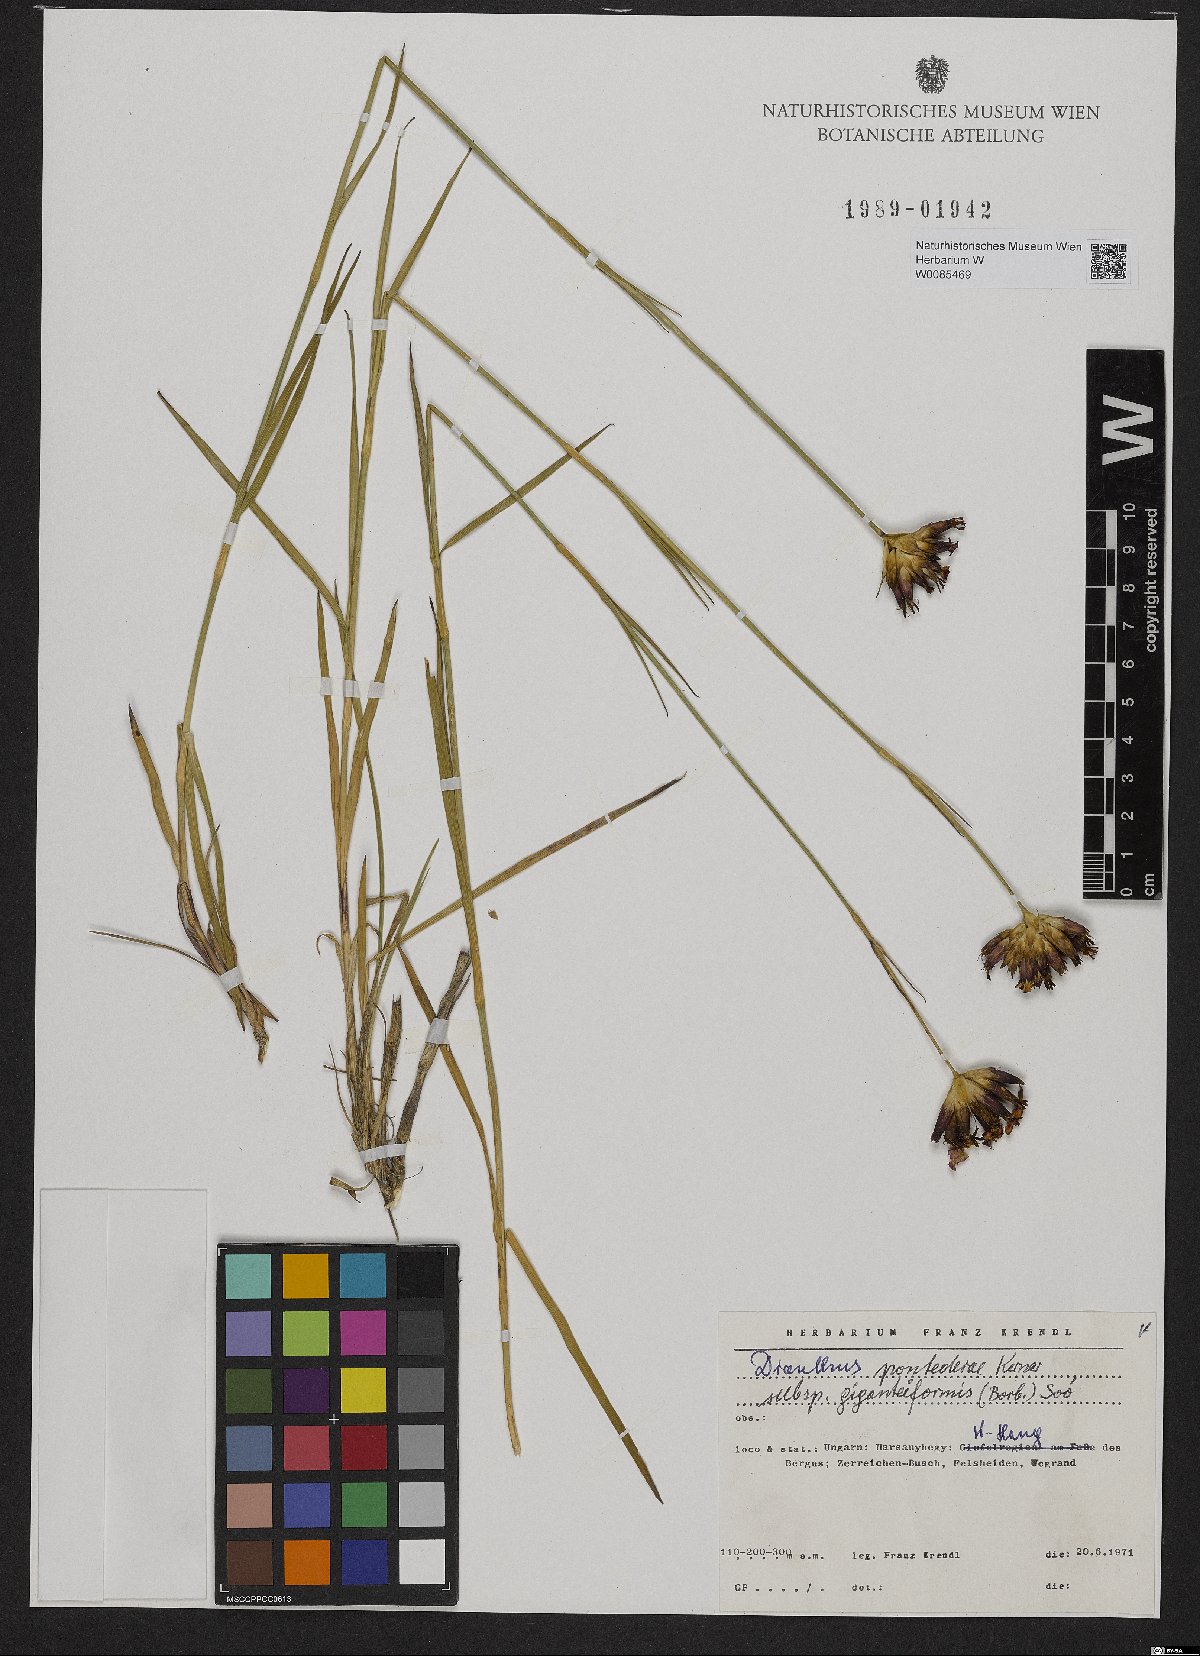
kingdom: Plantae
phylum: Tracheophyta
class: Magnoliopsida
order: Caryophyllales
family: Caryophyllaceae
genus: Dianthus
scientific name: Dianthus giganteiformis
